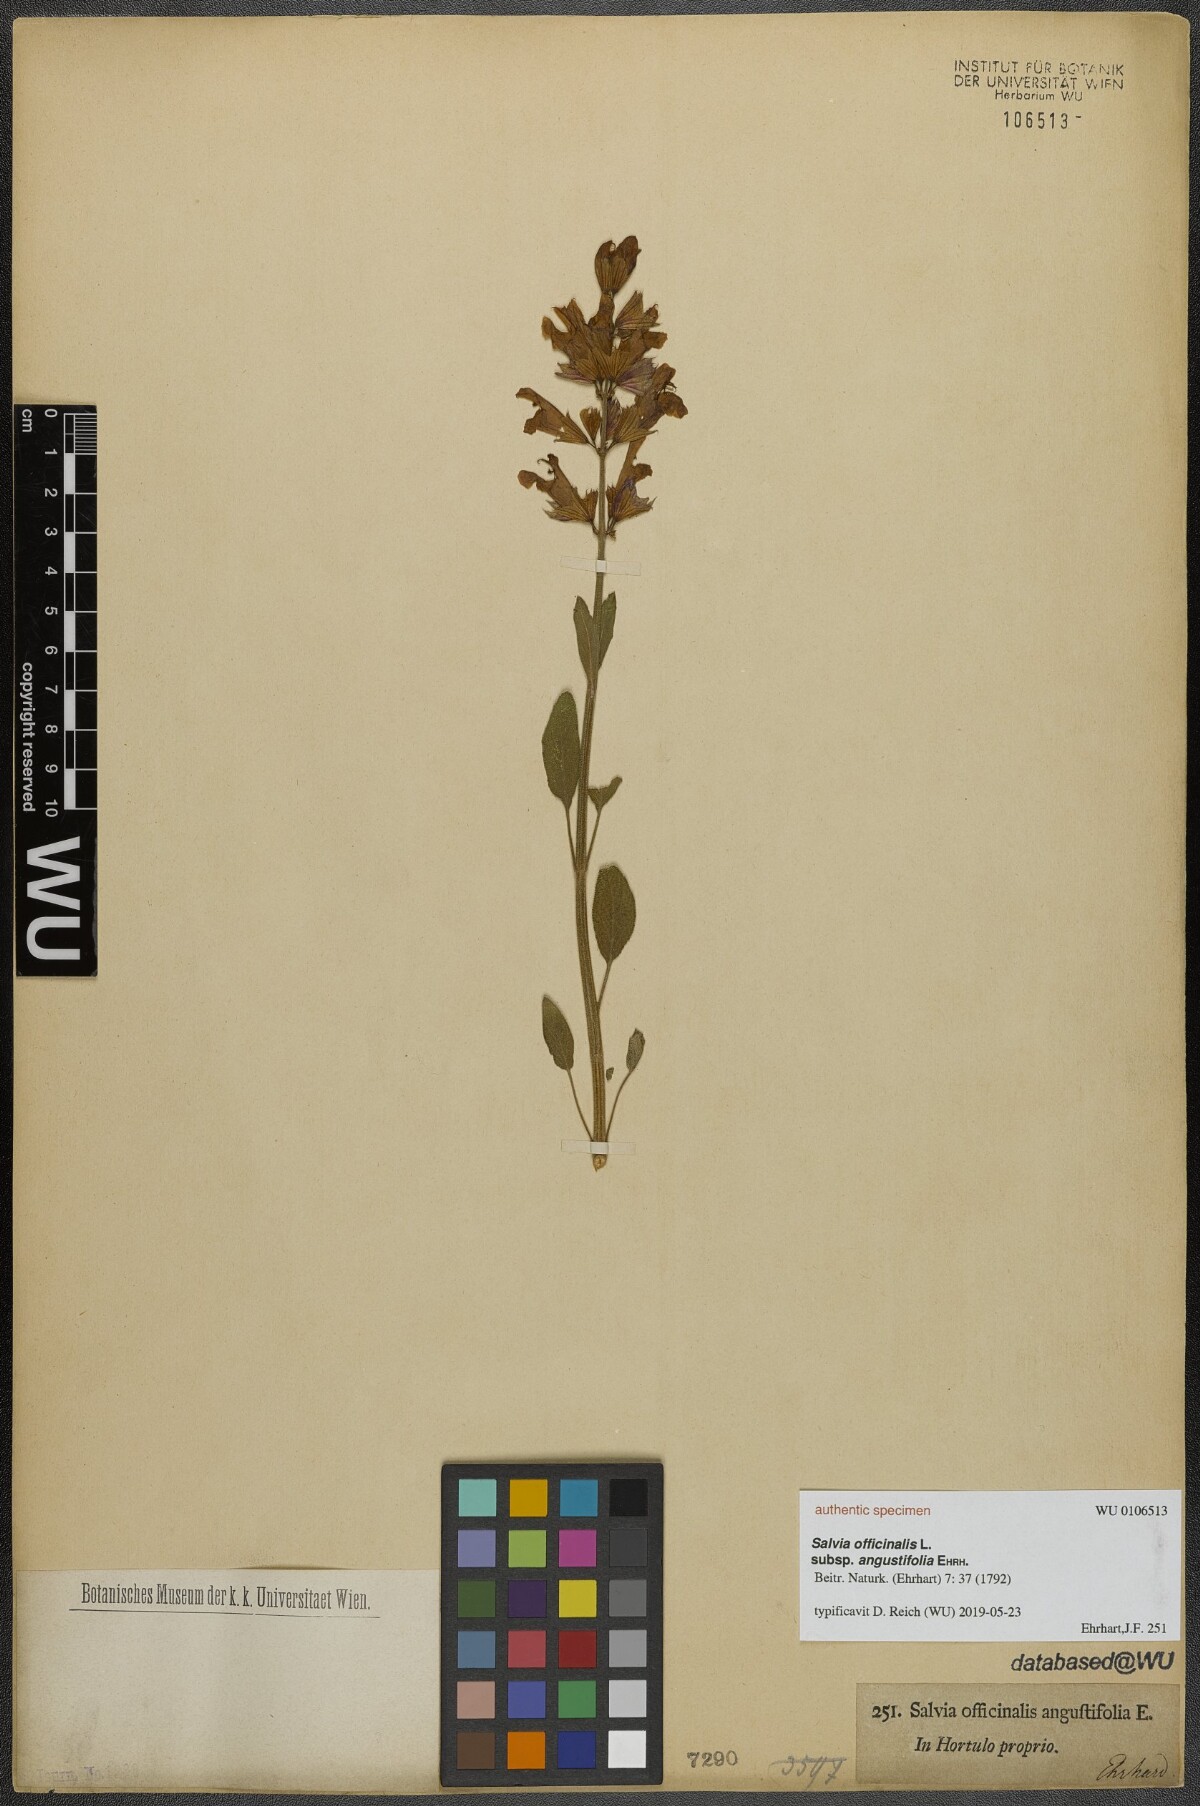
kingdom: Plantae
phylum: Tracheophyta
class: Magnoliopsida
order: Lamiales
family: Lamiaceae
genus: Salvia
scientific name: Salvia officinalis
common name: Sage
